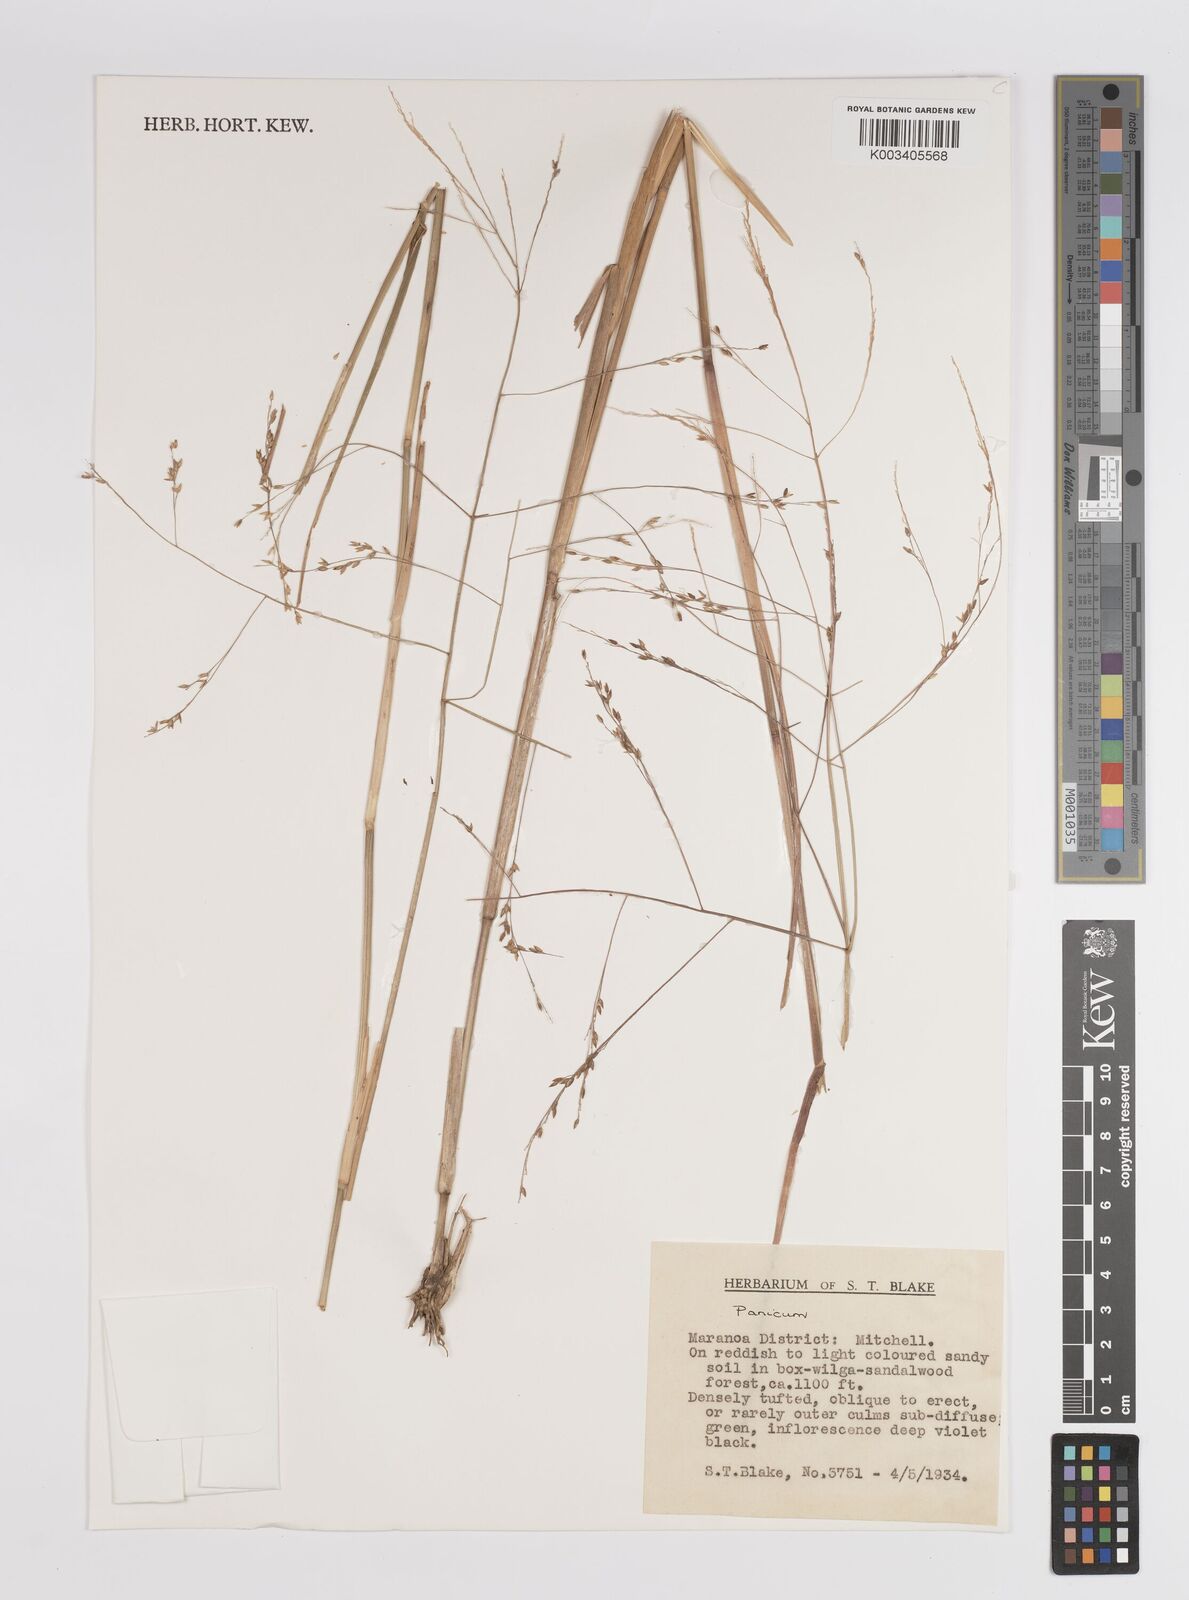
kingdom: Plantae
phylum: Tracheophyta
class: Liliopsida
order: Poales
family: Poaceae
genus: Panicum
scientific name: Panicum
